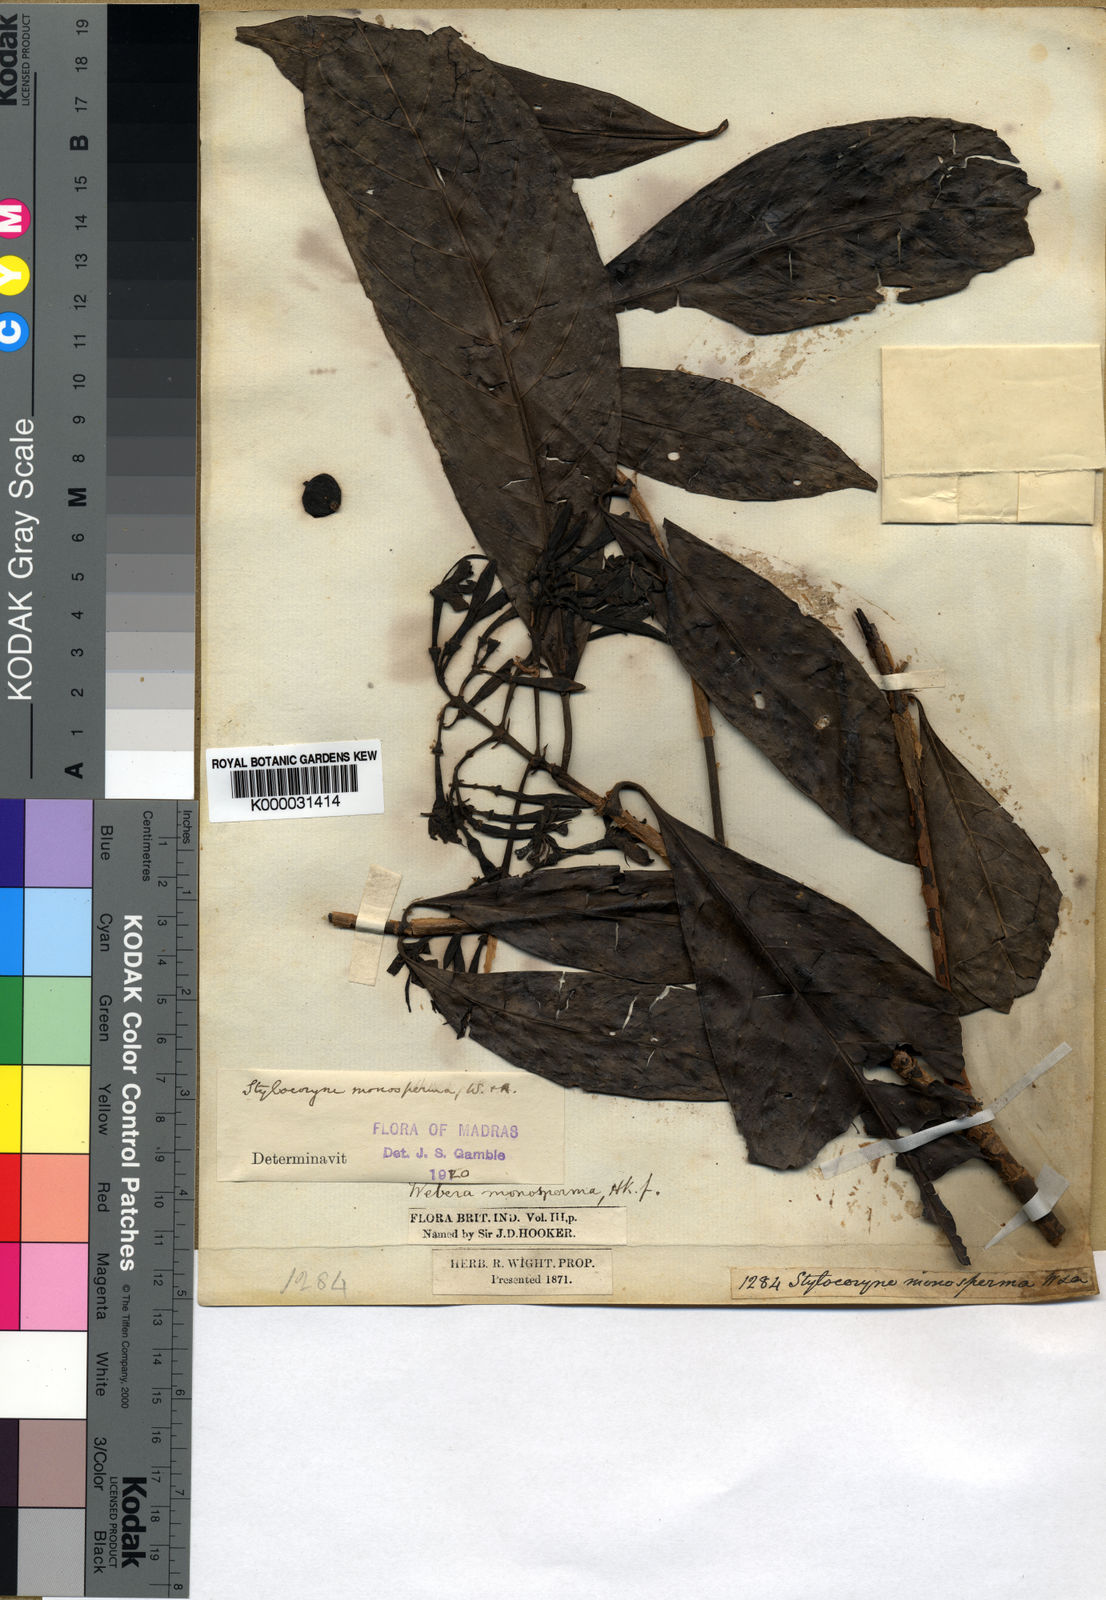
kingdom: Plantae
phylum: Tracheophyta
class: Magnoliopsida
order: Gentianales
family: Rubiaceae
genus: Tarenna
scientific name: Tarenna monosperma
